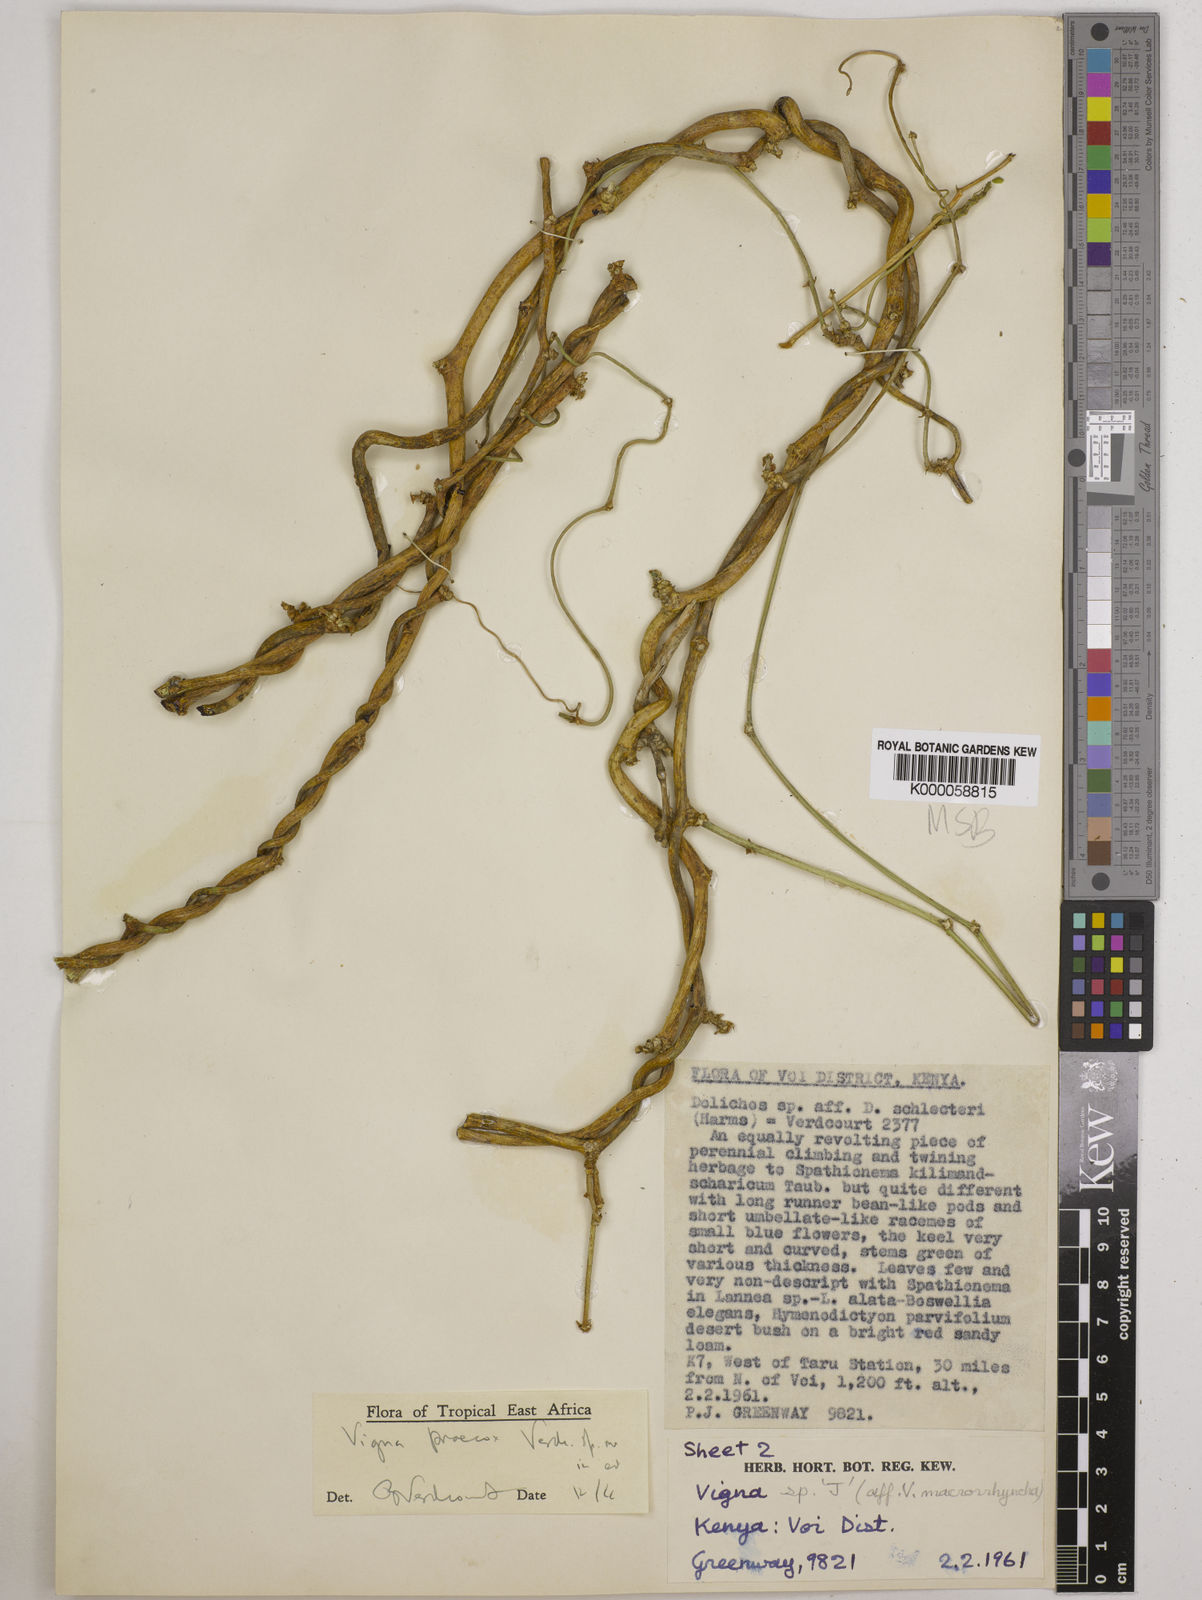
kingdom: Plantae
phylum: Tracheophyta
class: Magnoliopsida
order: Fabales
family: Fabaceae
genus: Wajira
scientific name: Wajira praecox
